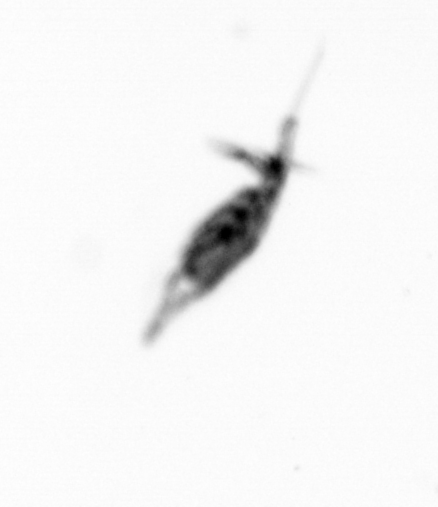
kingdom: Animalia
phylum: Arthropoda
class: Copepoda
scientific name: Copepoda
